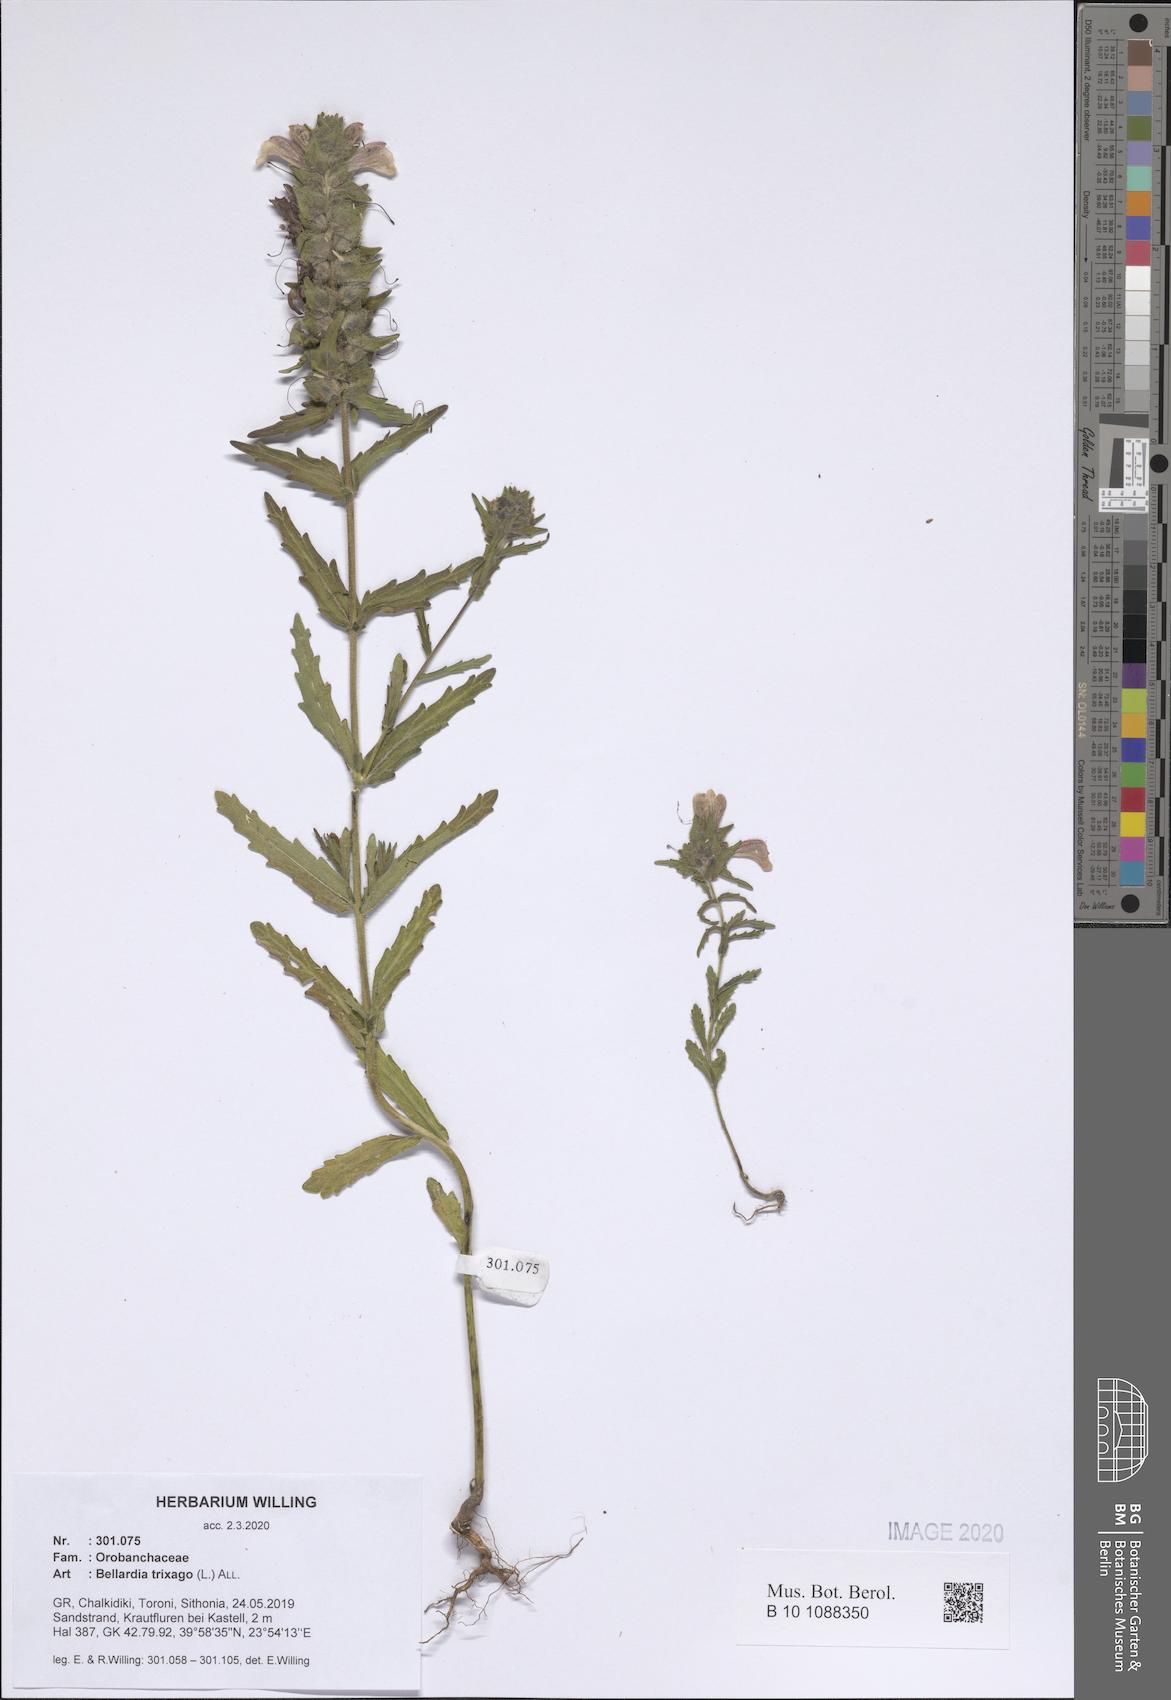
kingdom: Plantae
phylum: Tracheophyta
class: Magnoliopsida
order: Lamiales
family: Orobanchaceae
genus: Bellardia
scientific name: Bellardia trixago
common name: Mediterranean lineseed
